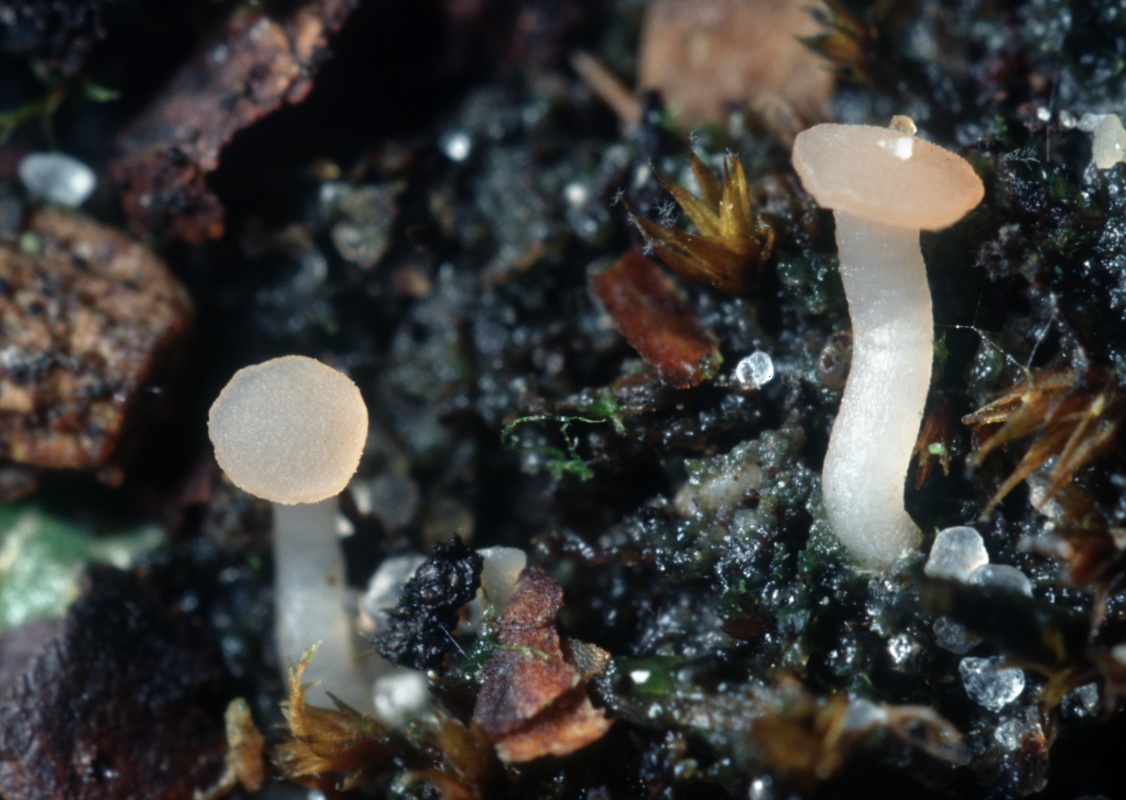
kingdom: Fungi
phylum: Ascomycota
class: Leotiomycetes
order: Helotiales
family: Hyaloscyphaceae
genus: Roseodiscus
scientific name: Roseodiscus formosus
